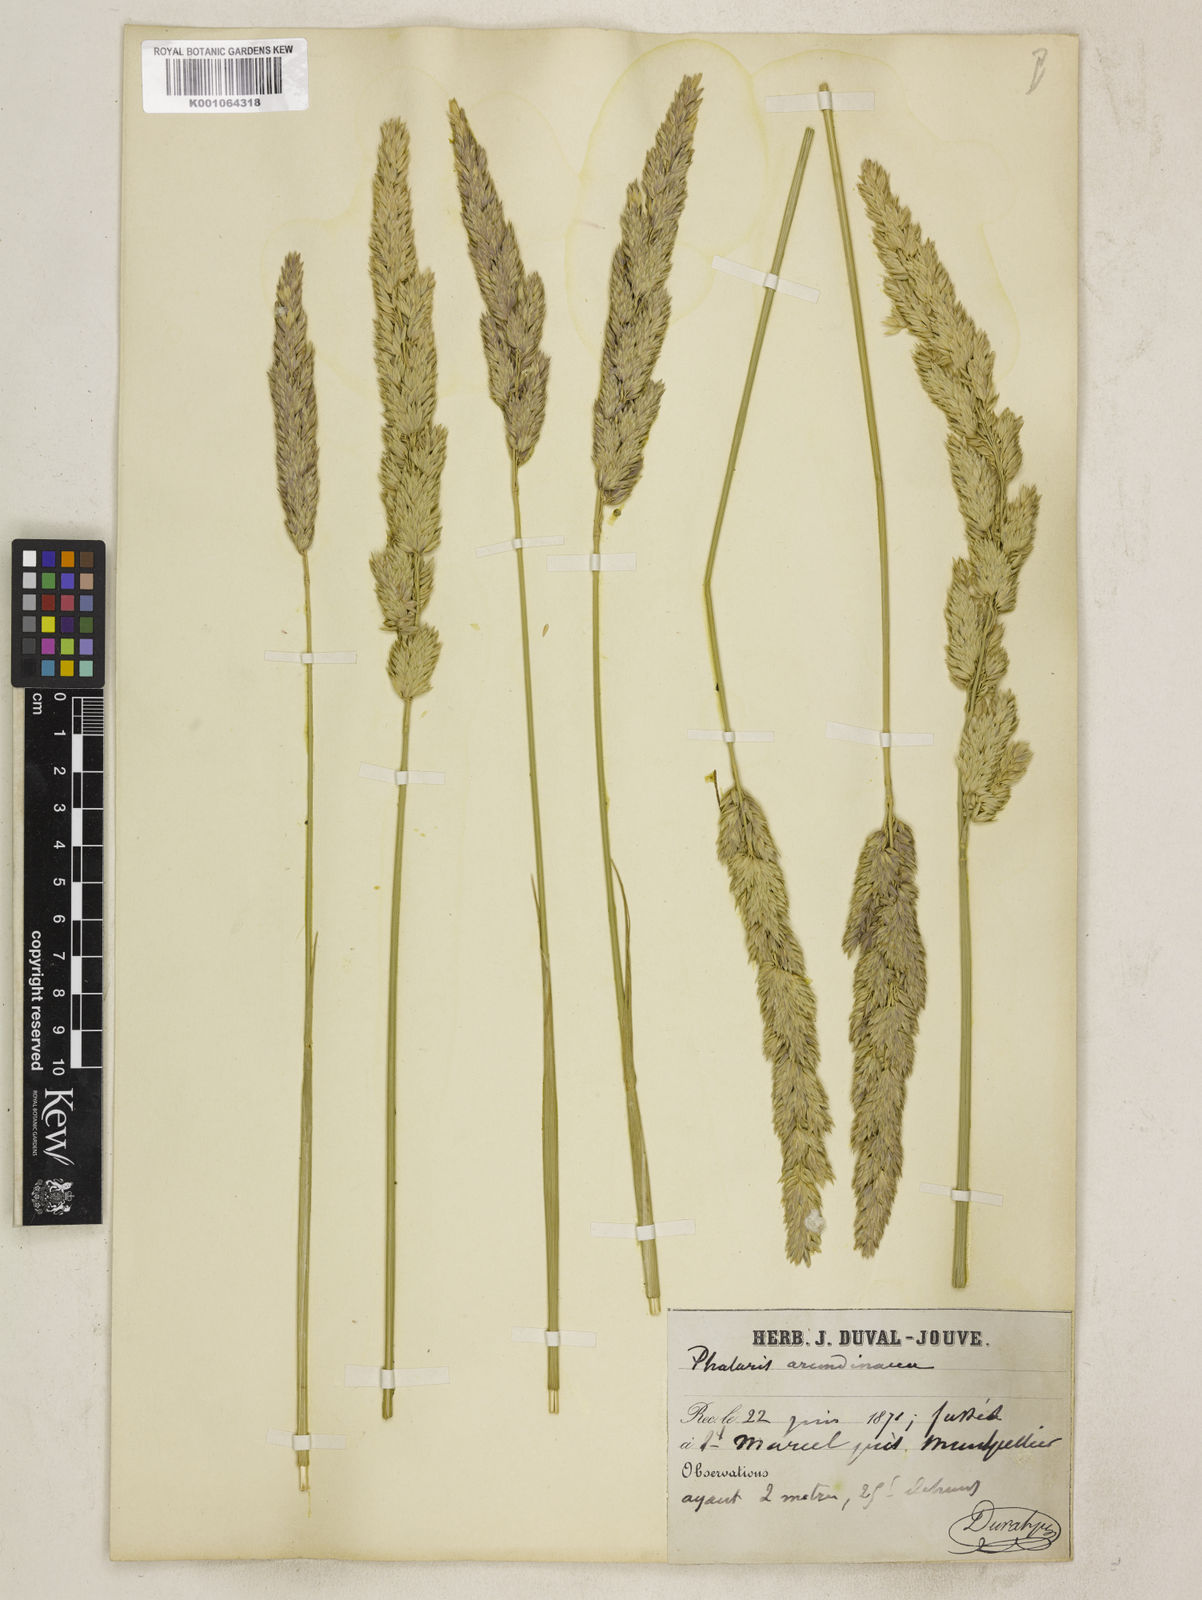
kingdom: Plantae
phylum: Tracheophyta
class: Liliopsida
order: Poales
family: Poaceae
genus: Phalaris
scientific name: Phalaris arundinacea
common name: Reed canary-grass
